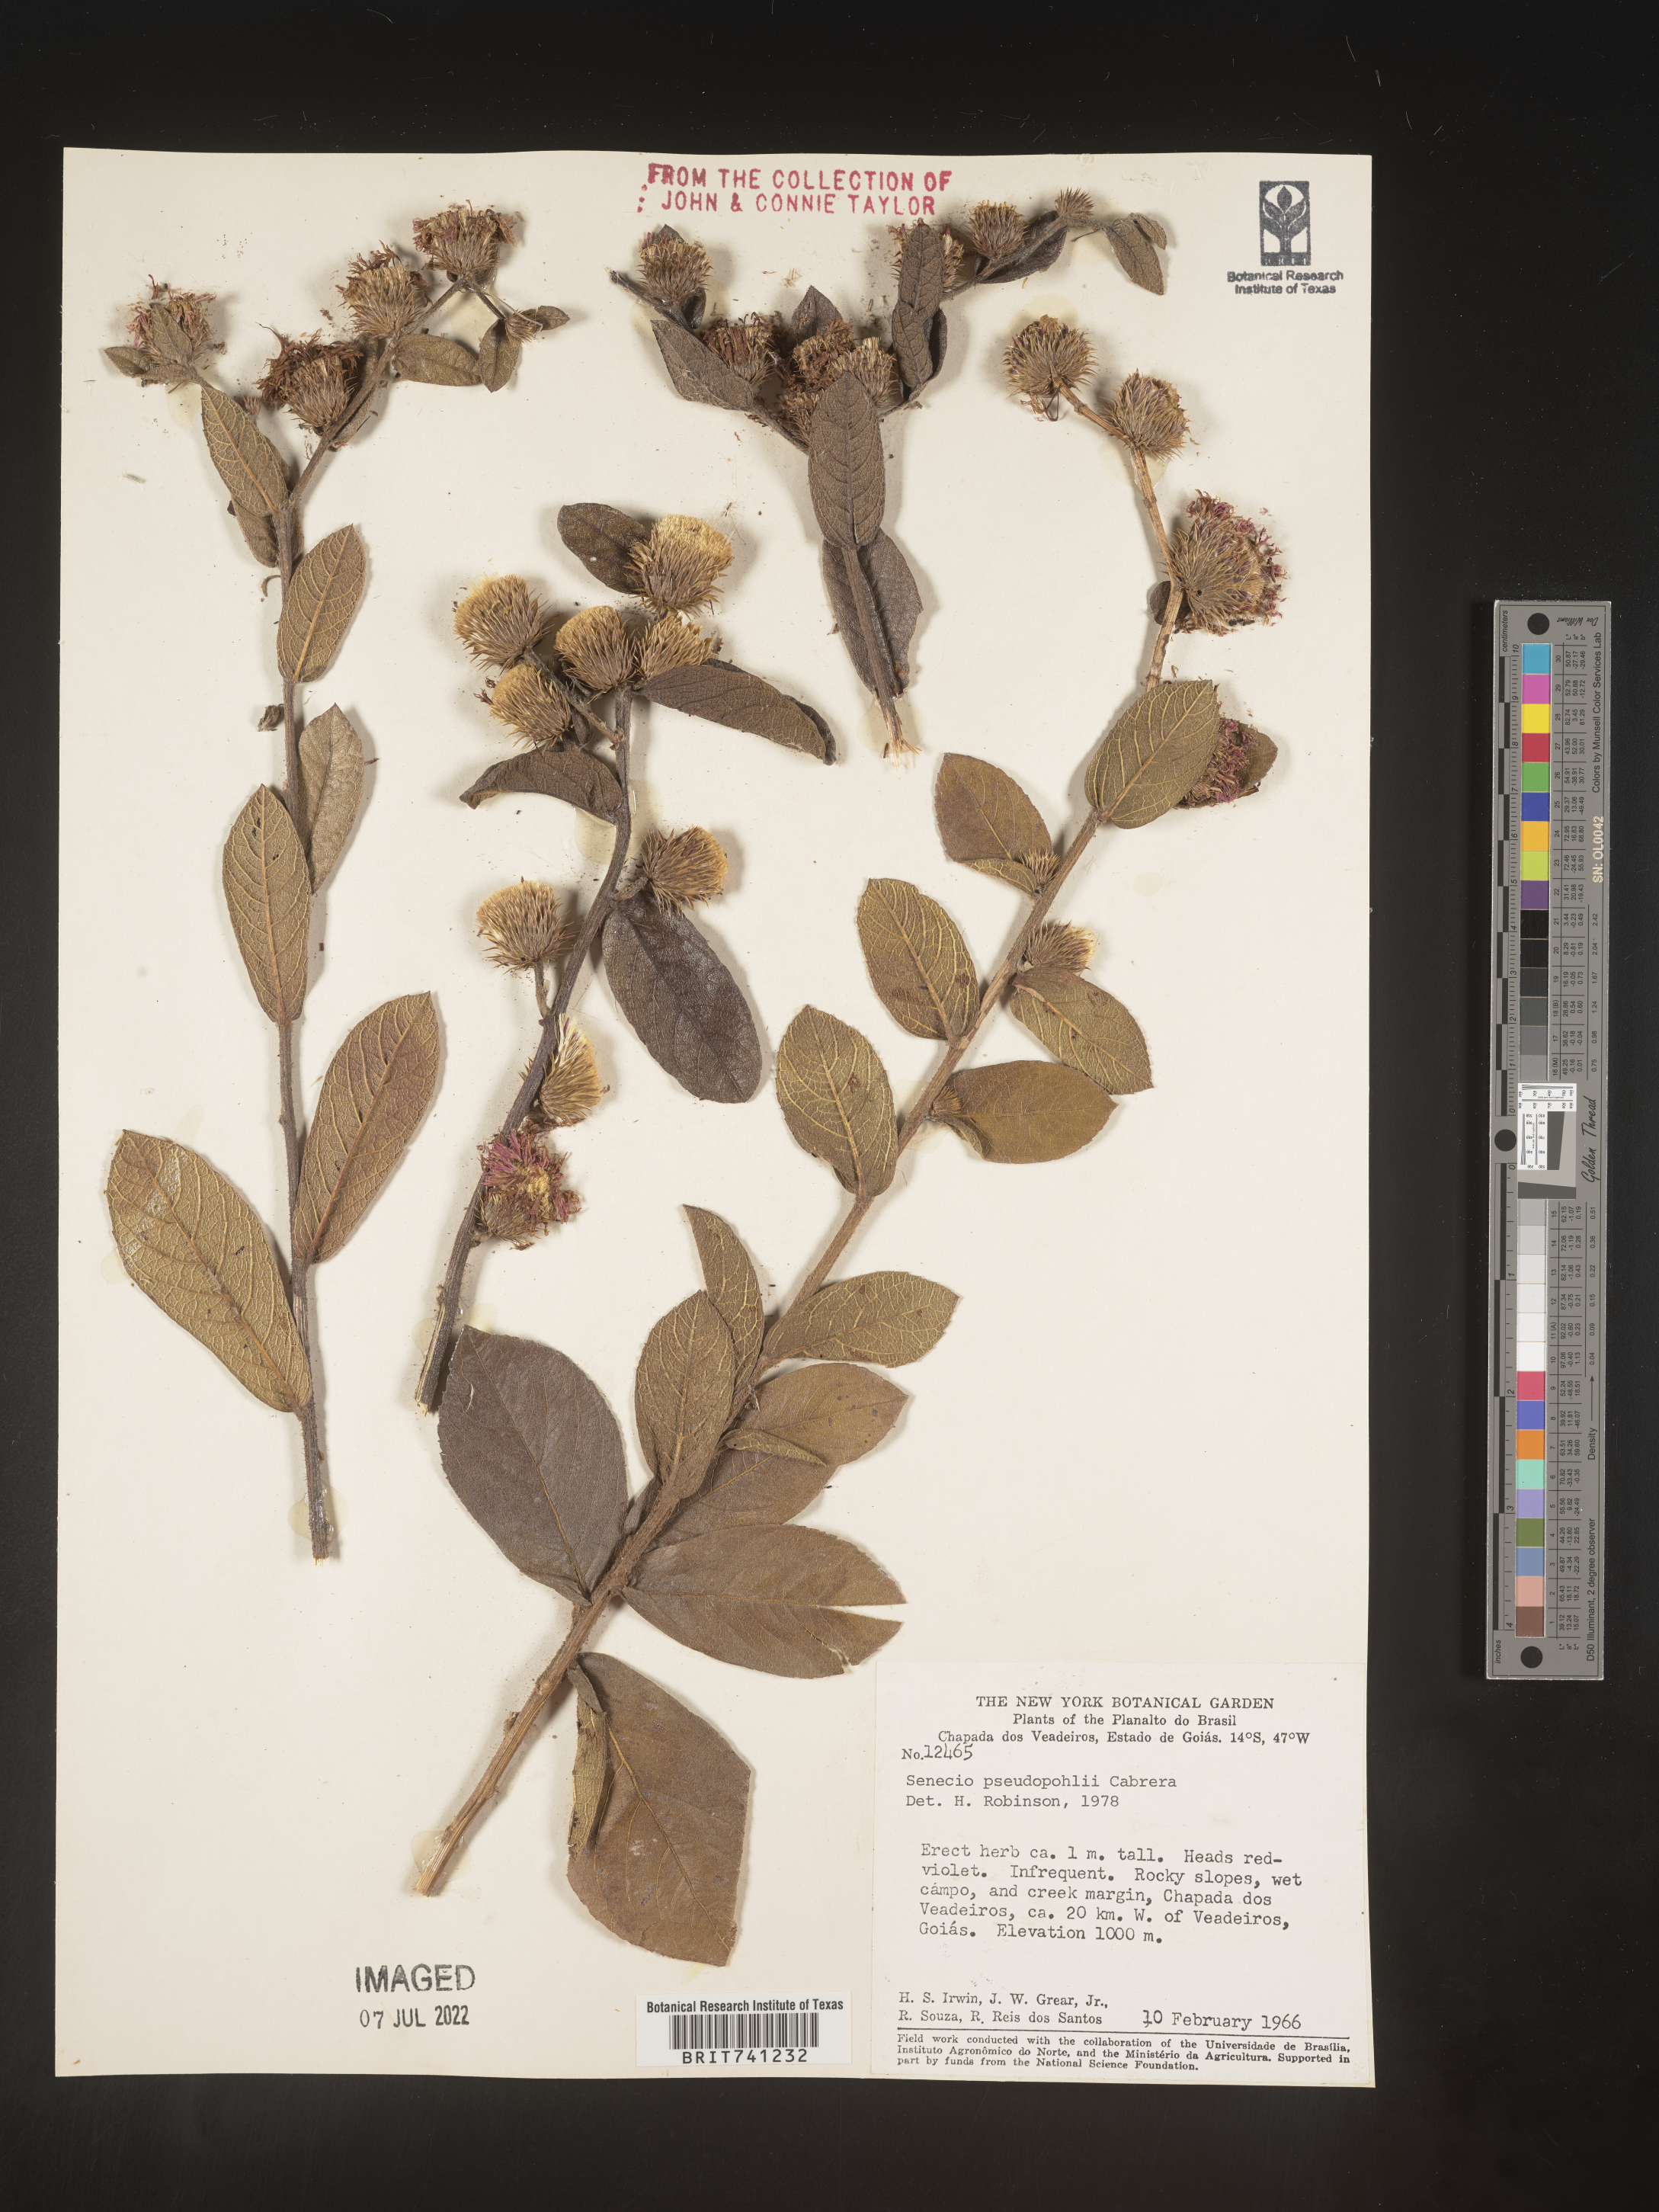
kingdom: Plantae
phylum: Tracheophyta
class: Magnoliopsida
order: Asterales
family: Asteraceae
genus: Senecio
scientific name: Senecio
